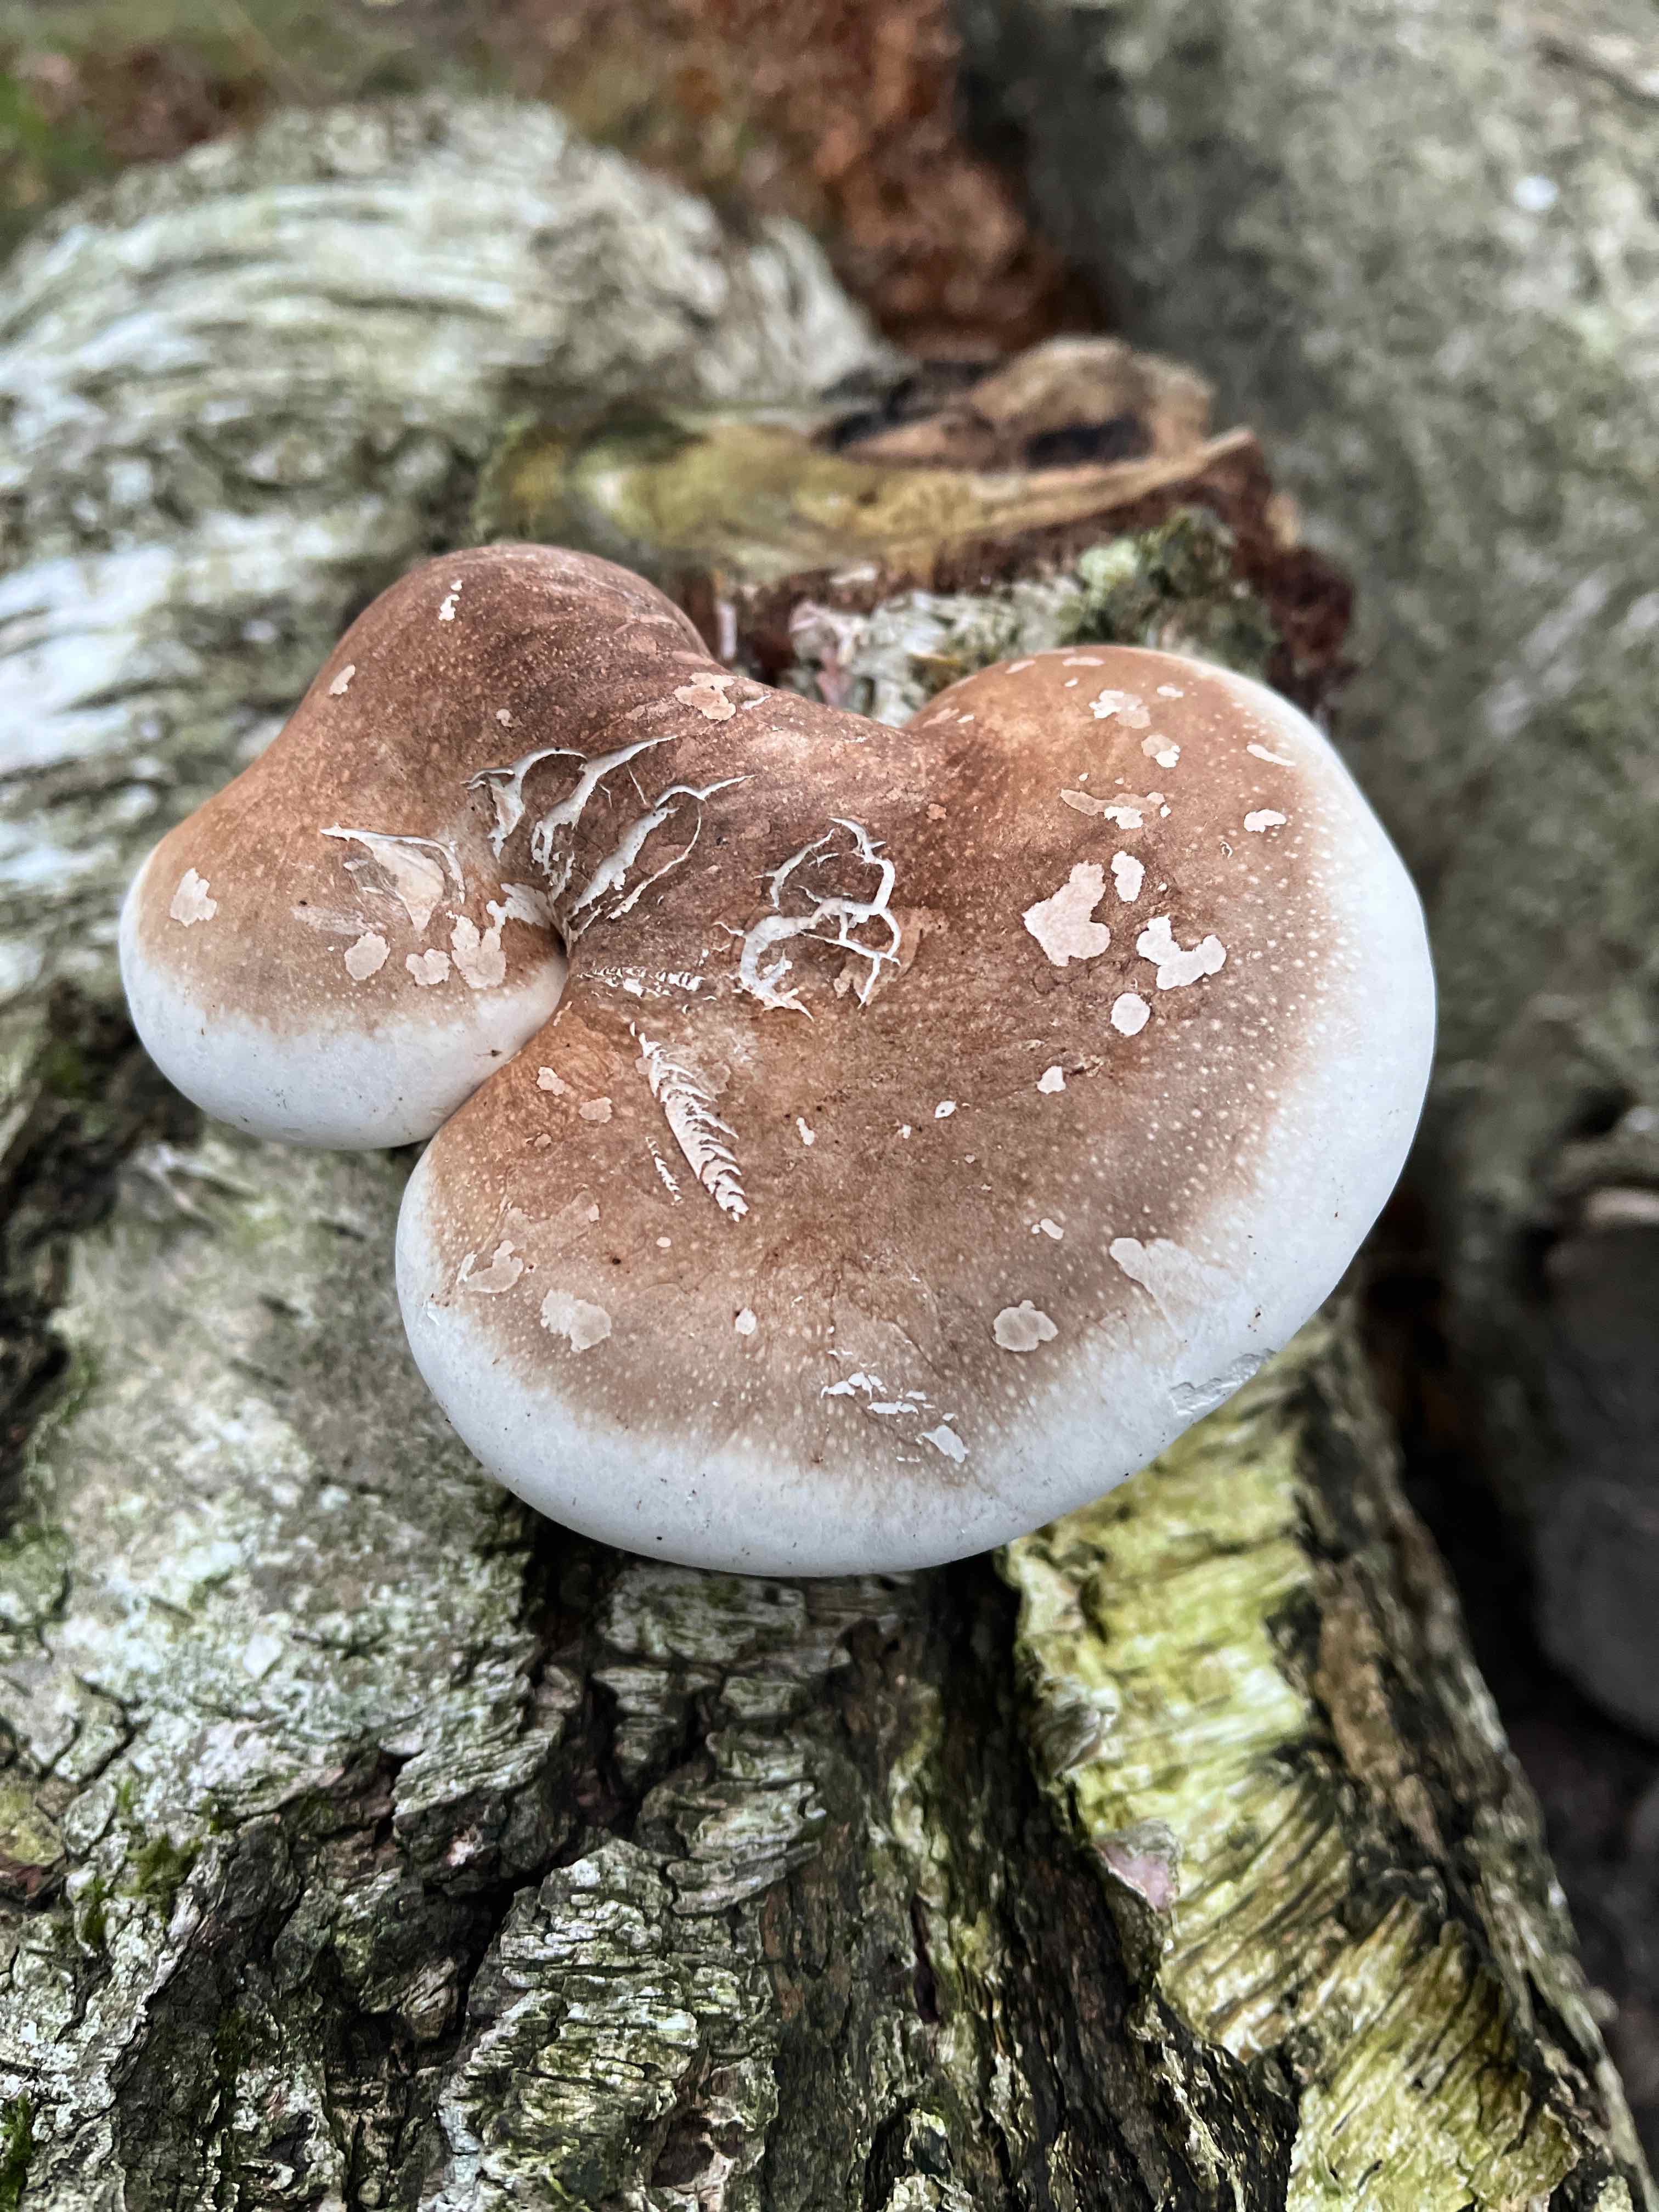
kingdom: Fungi
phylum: Basidiomycota
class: Agaricomycetes
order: Polyporales
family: Fomitopsidaceae
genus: Fomitopsis
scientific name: Fomitopsis betulina
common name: birkeporesvamp
